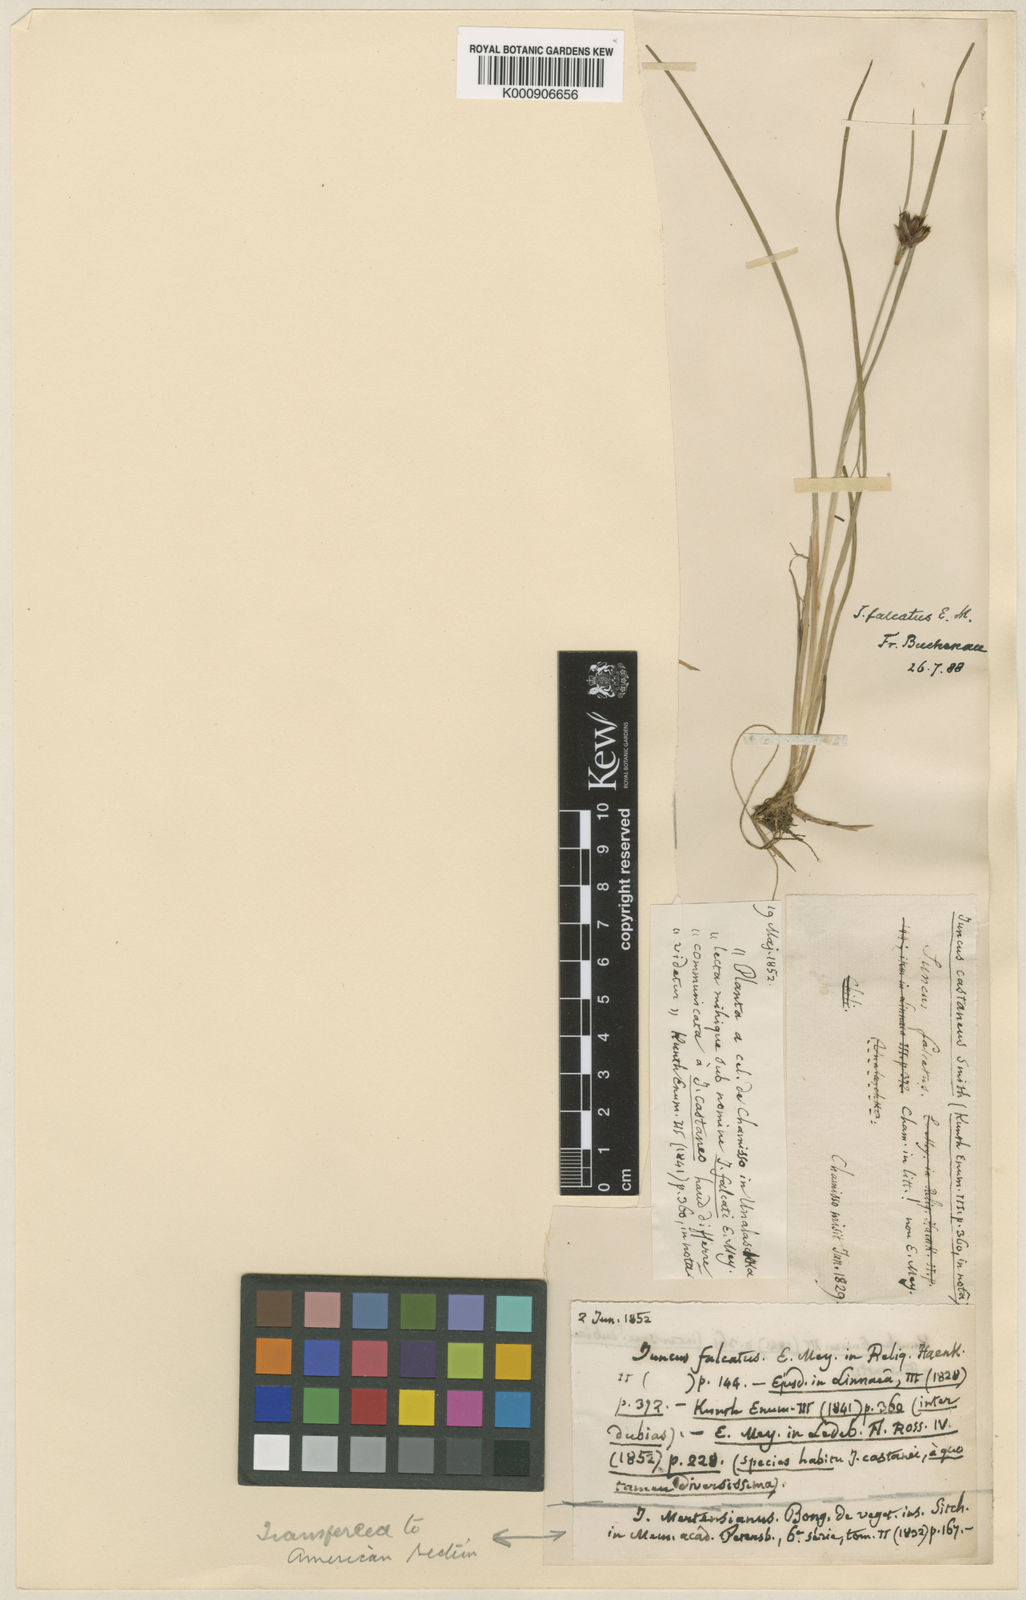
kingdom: Plantae
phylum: Tracheophyta
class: Liliopsida
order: Poales
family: Juncaceae
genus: Juncus
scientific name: Juncus falcatus
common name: Sickle-leaf rush
